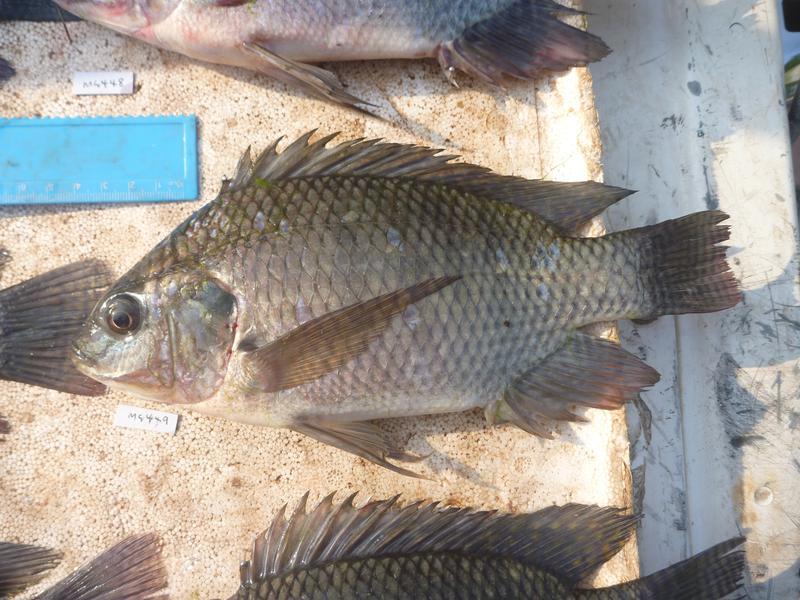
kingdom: Animalia
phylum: Chordata
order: Perciformes
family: Cichlidae
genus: Oreochromis
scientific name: Oreochromis niloticus
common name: Nile tilapia
